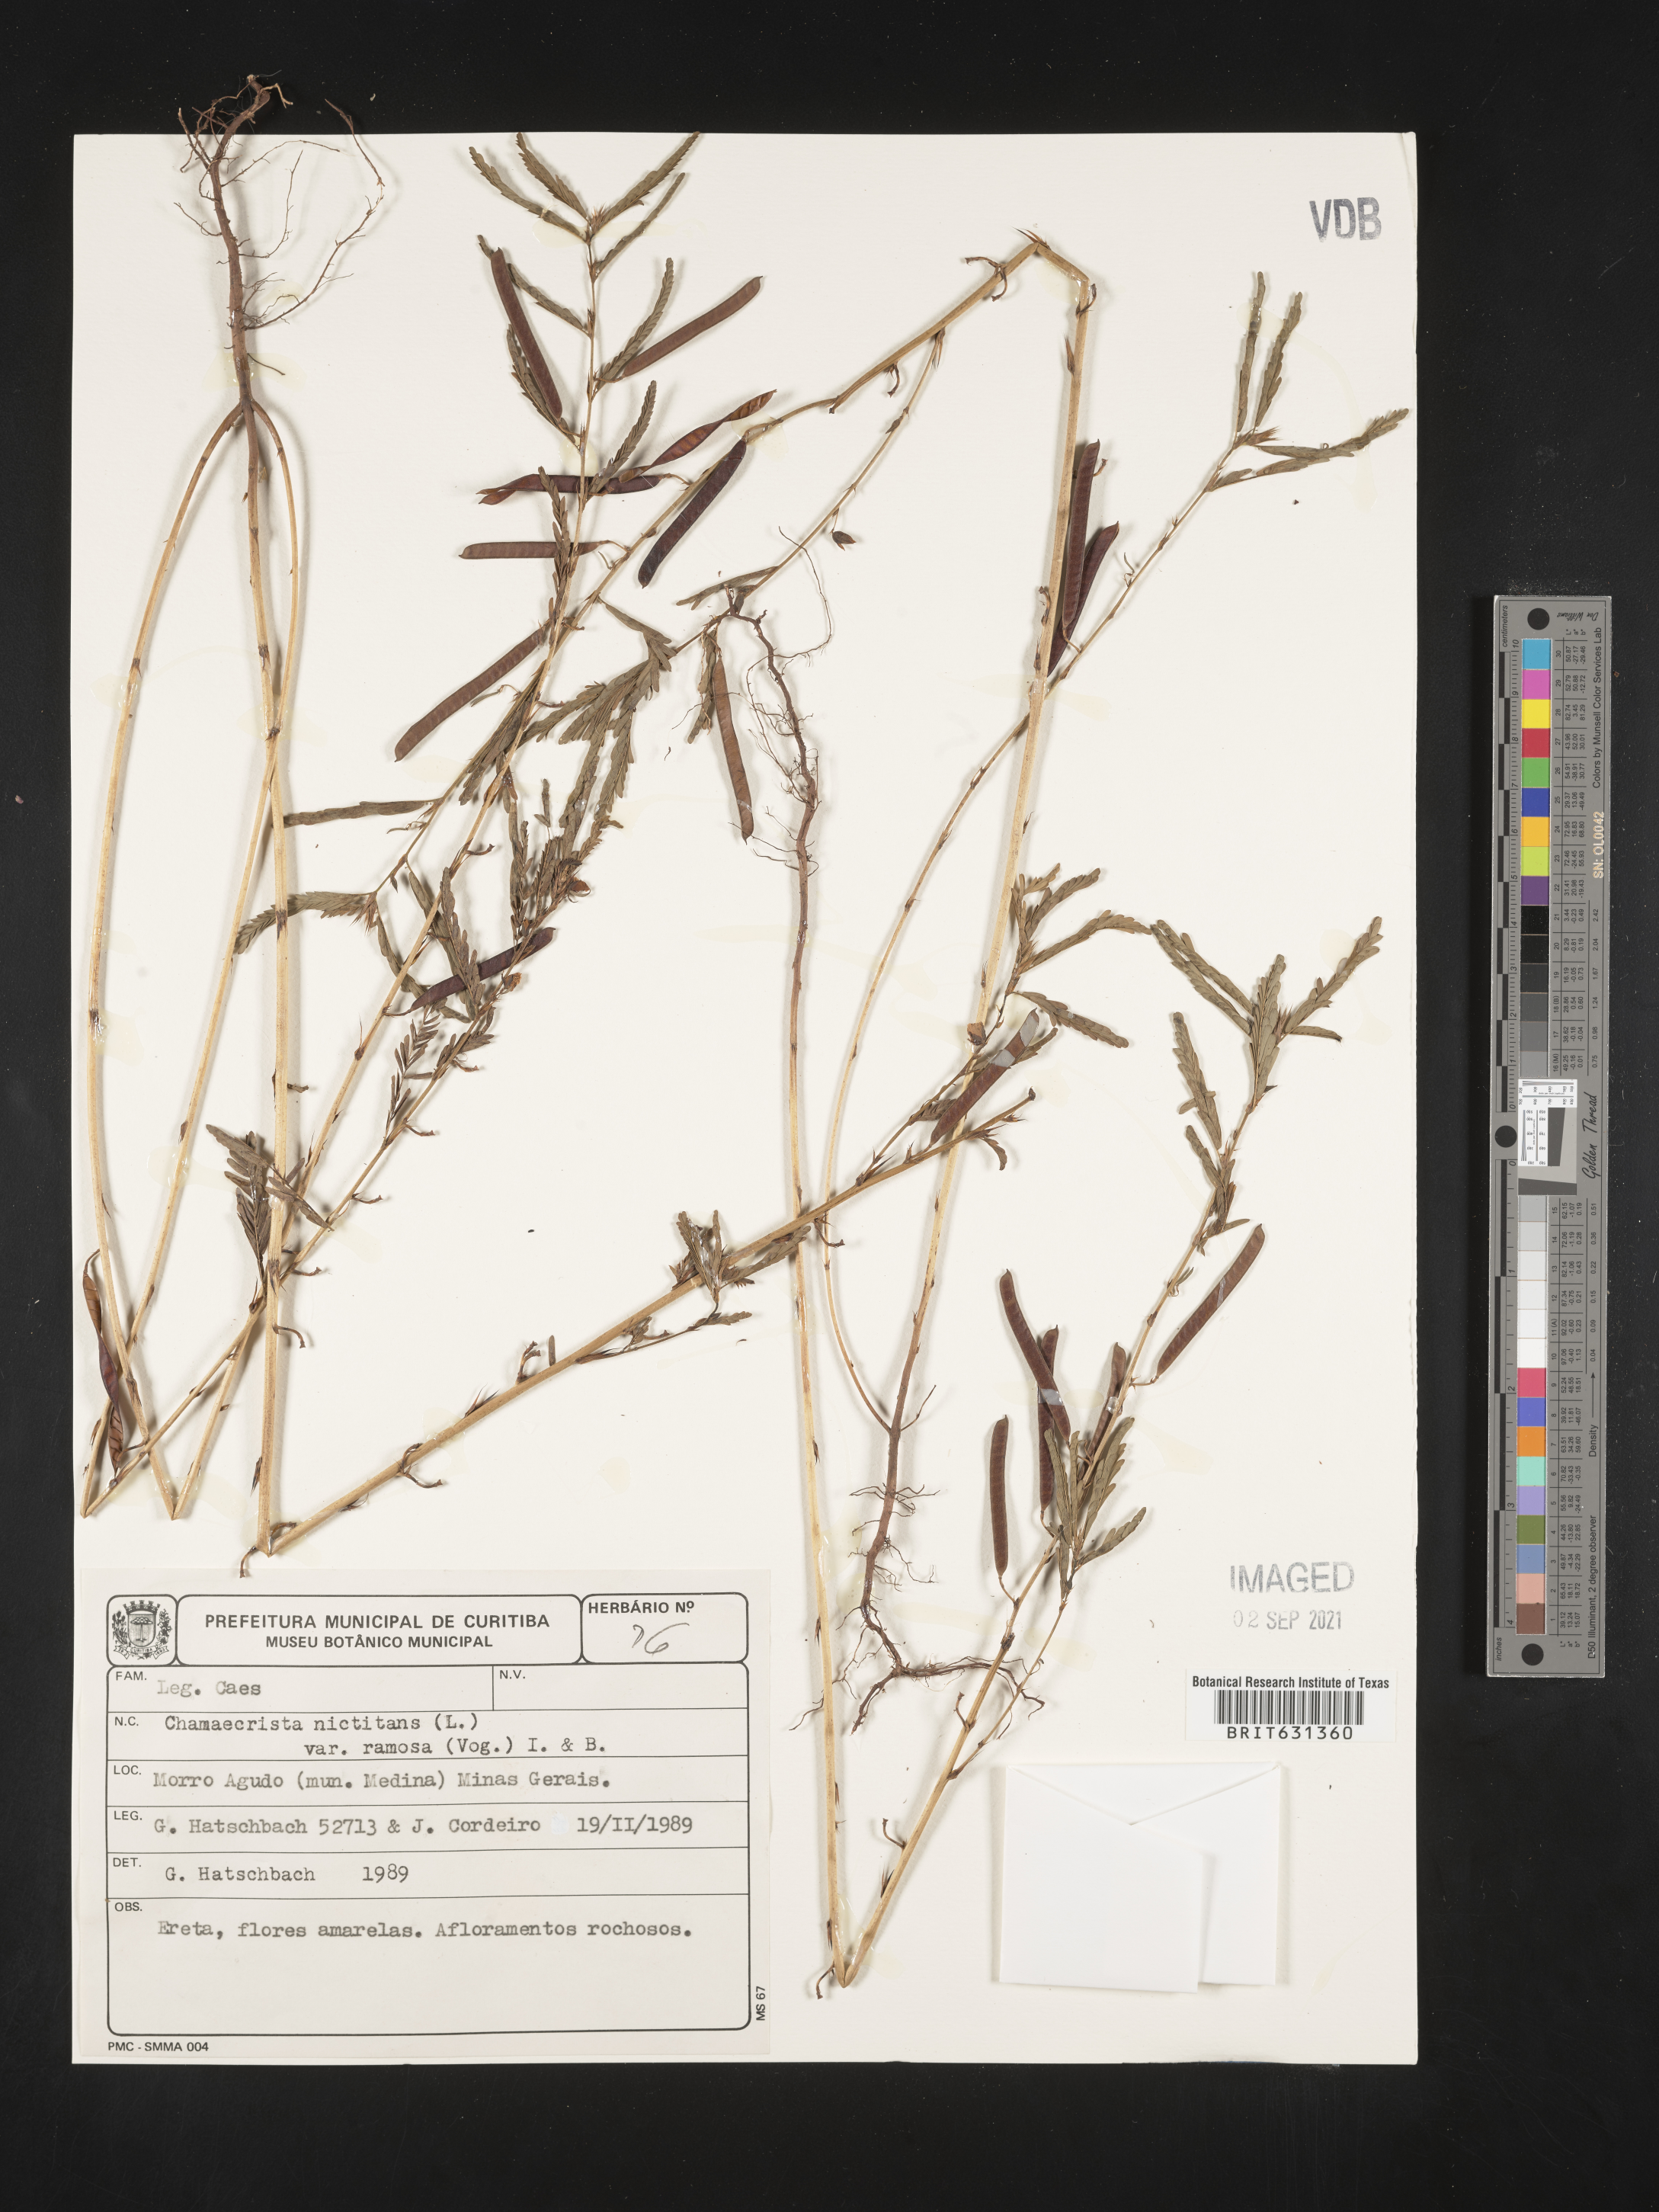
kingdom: Plantae
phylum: Tracheophyta
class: Magnoliopsida
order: Fabales
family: Fabaceae
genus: Chamaecrista
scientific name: Chamaecrista nictitans
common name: Sensitive cassia
